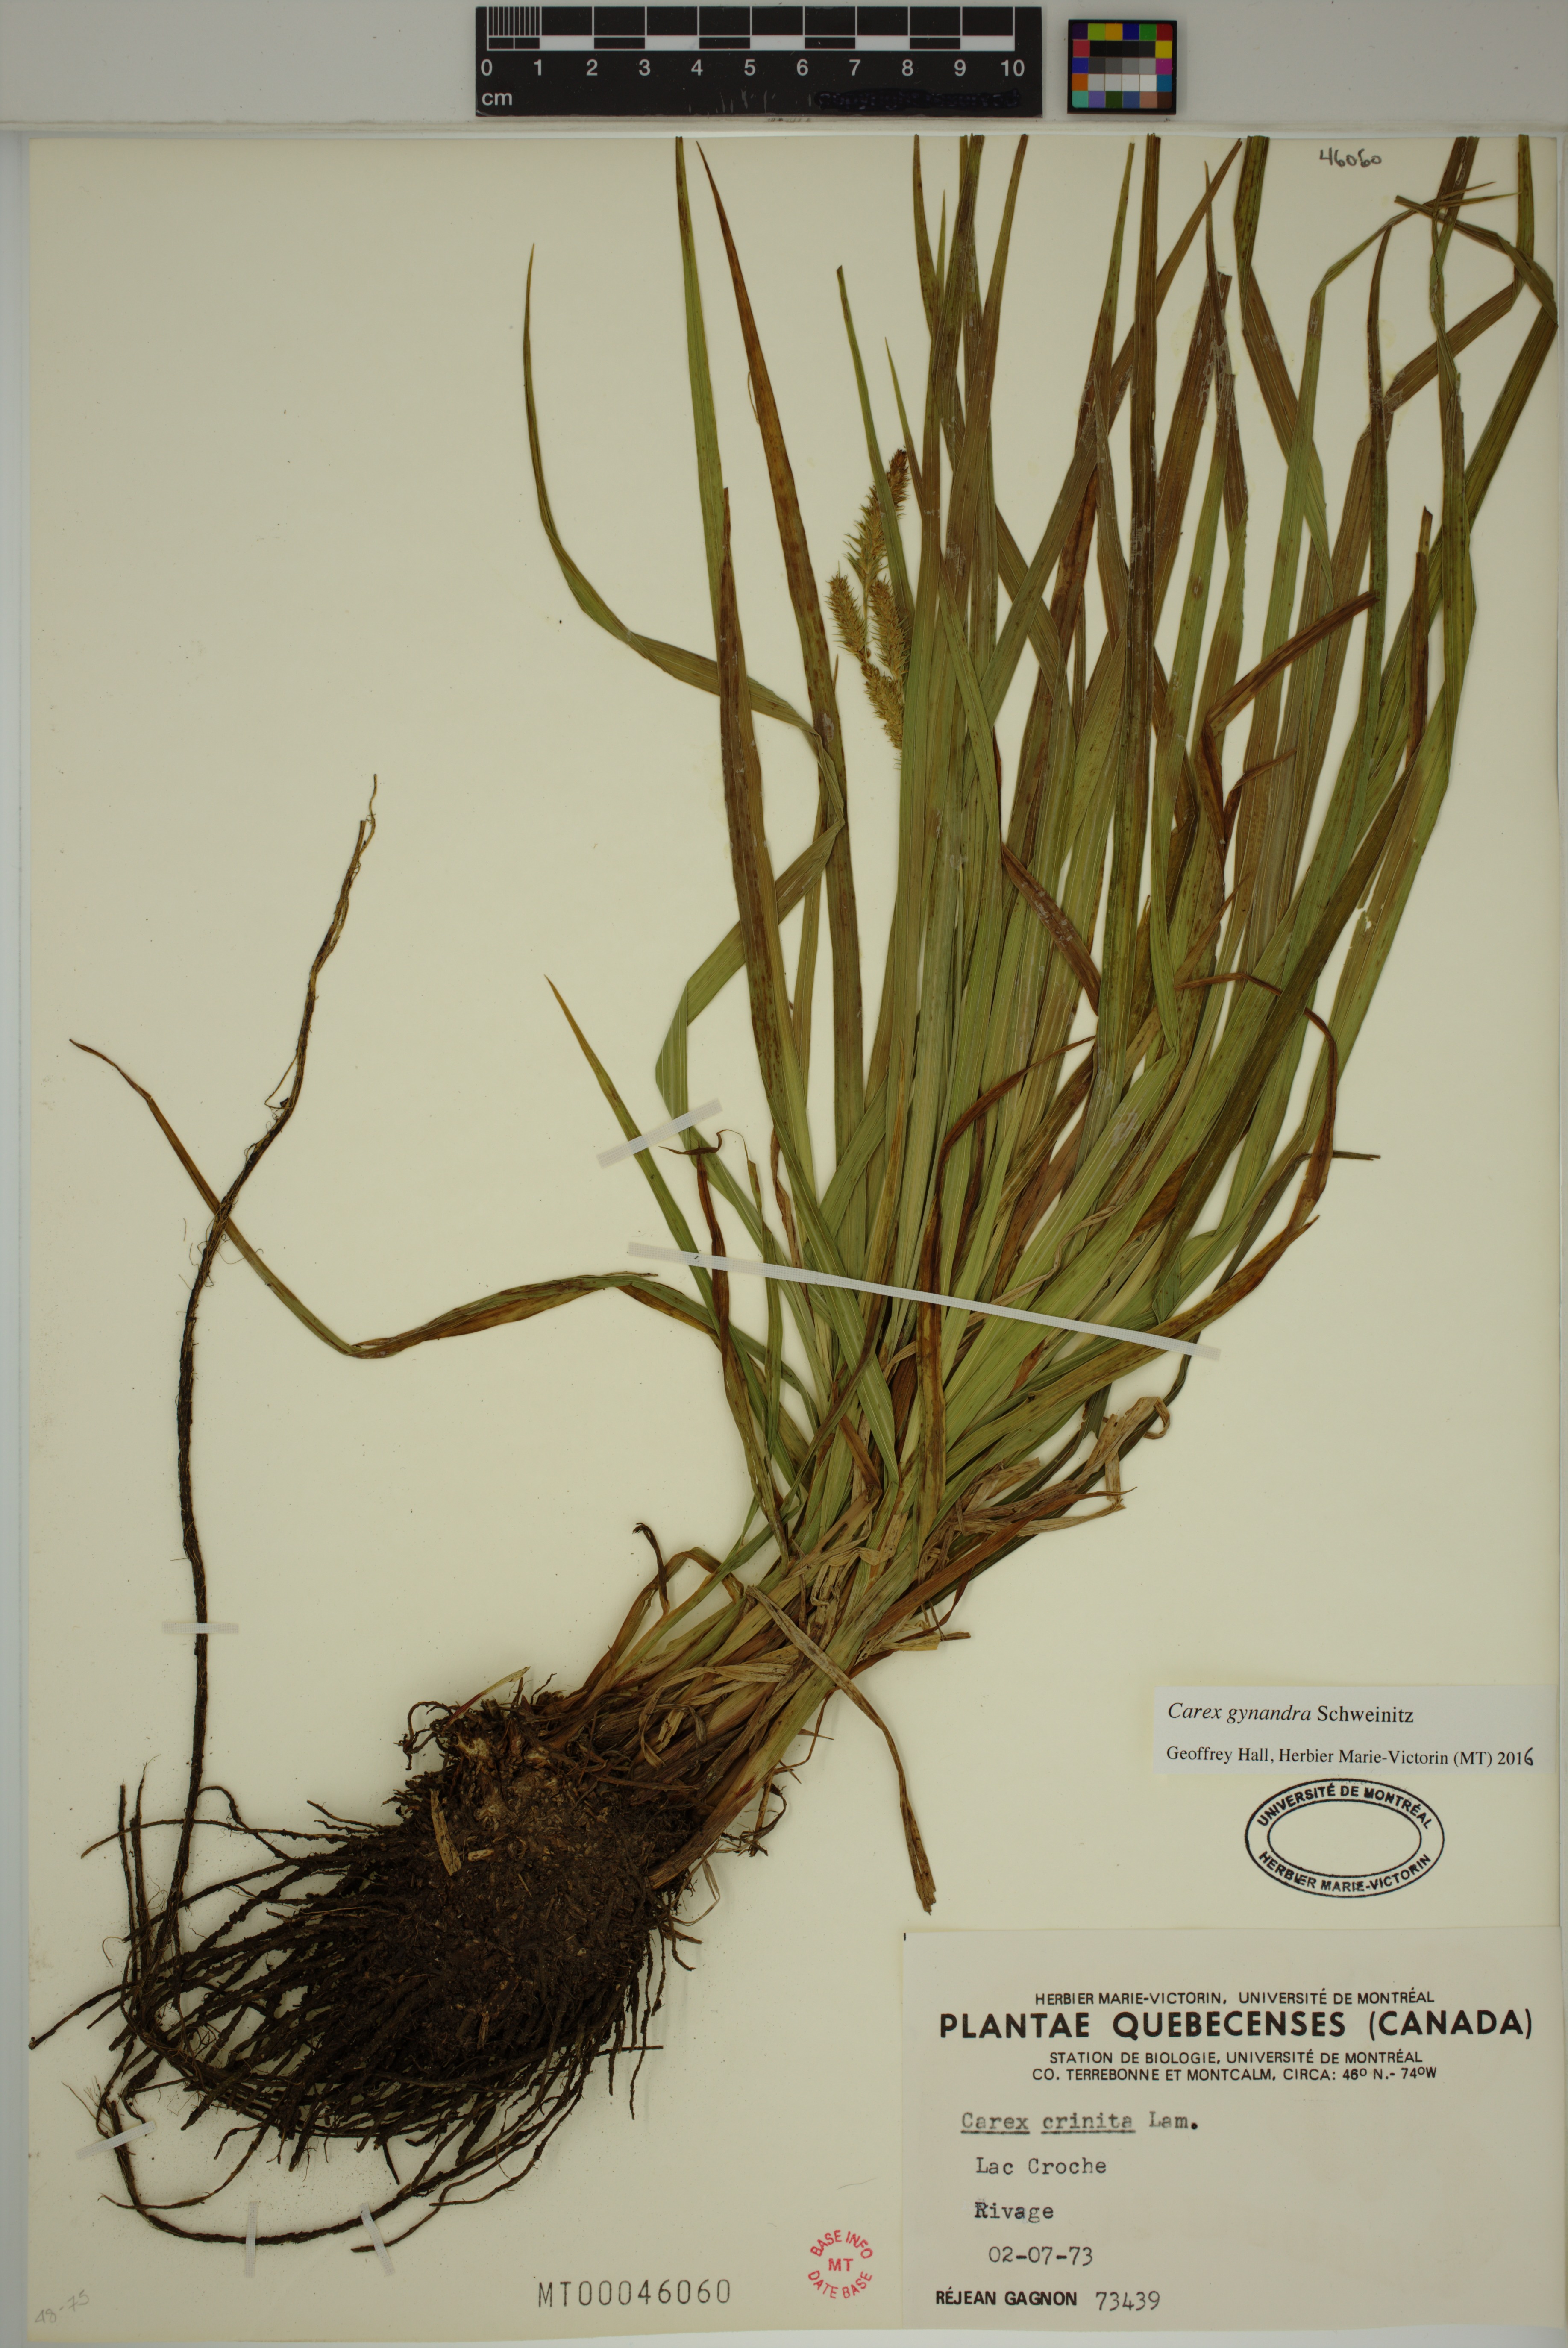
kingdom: Plantae
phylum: Tracheophyta
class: Liliopsida
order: Poales
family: Cyperaceae
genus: Carex
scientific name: Carex gynandra
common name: Nodding sedge
